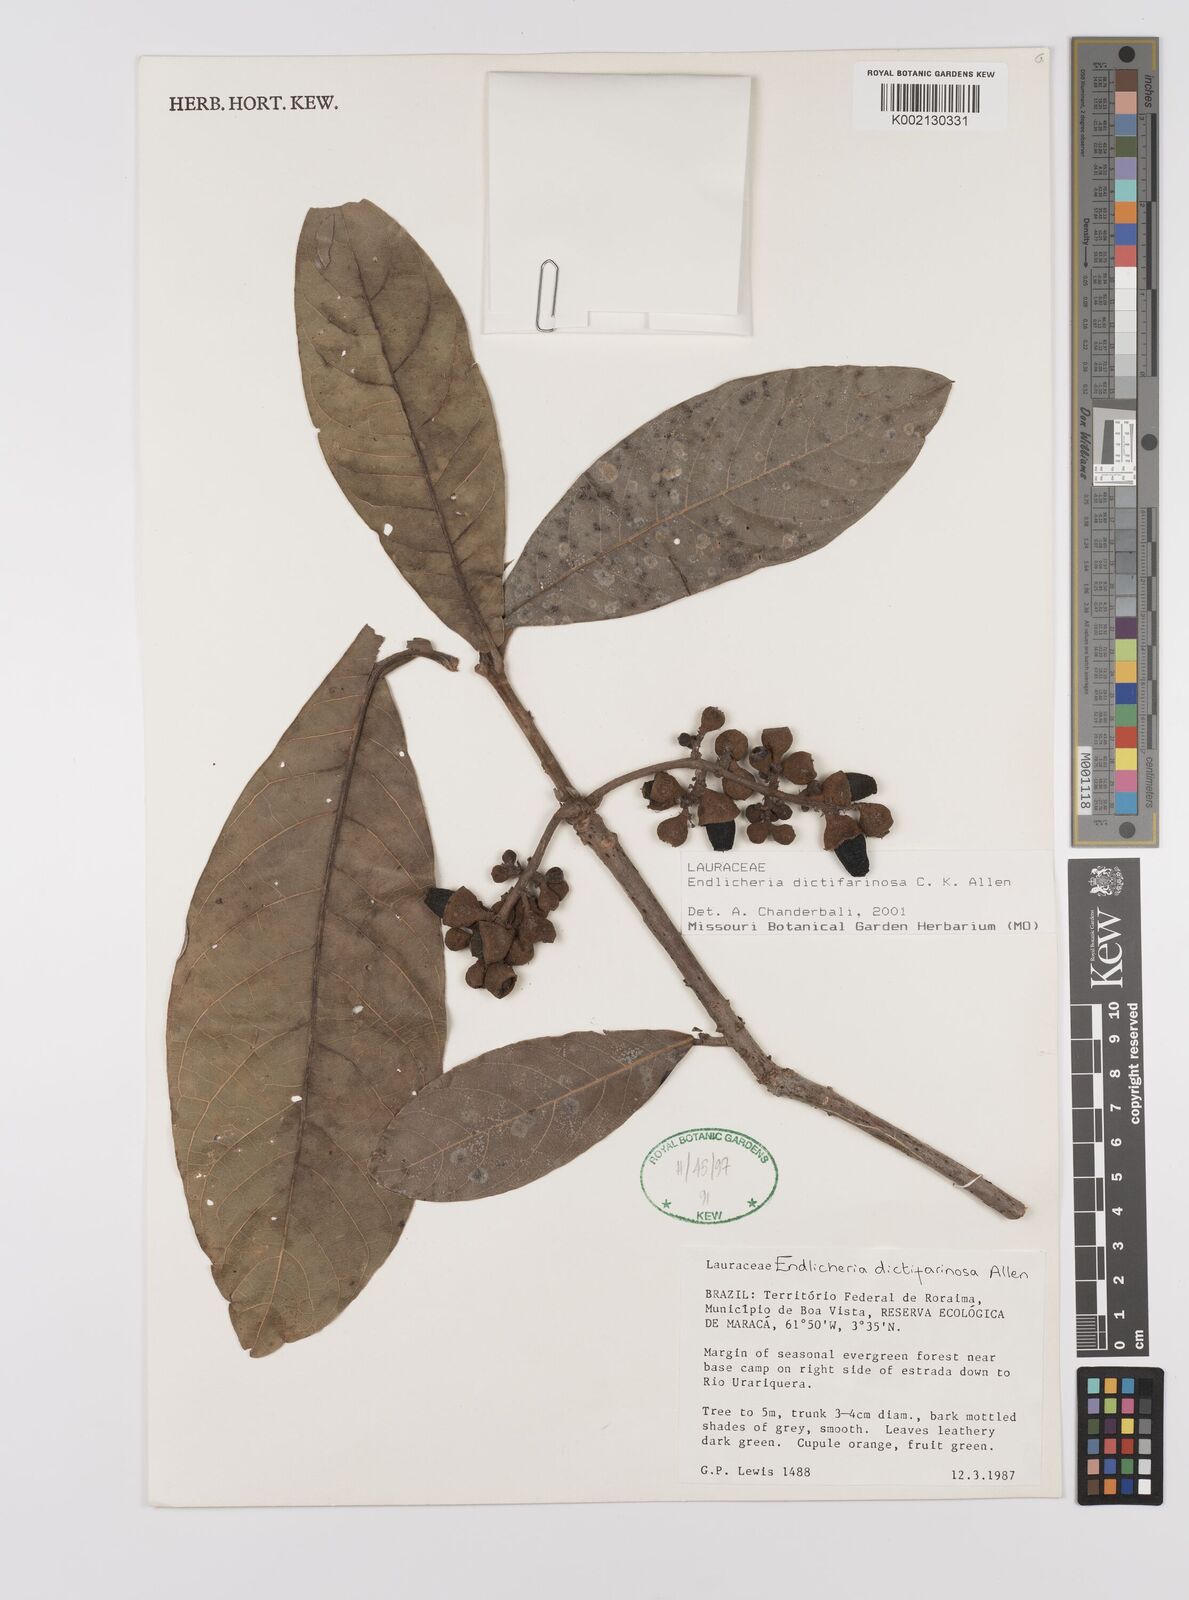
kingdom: Plantae
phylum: Tracheophyta
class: Magnoliopsida
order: Laurales
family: Lauraceae
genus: Endlicheria
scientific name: Endlicheria dictifarinosa
